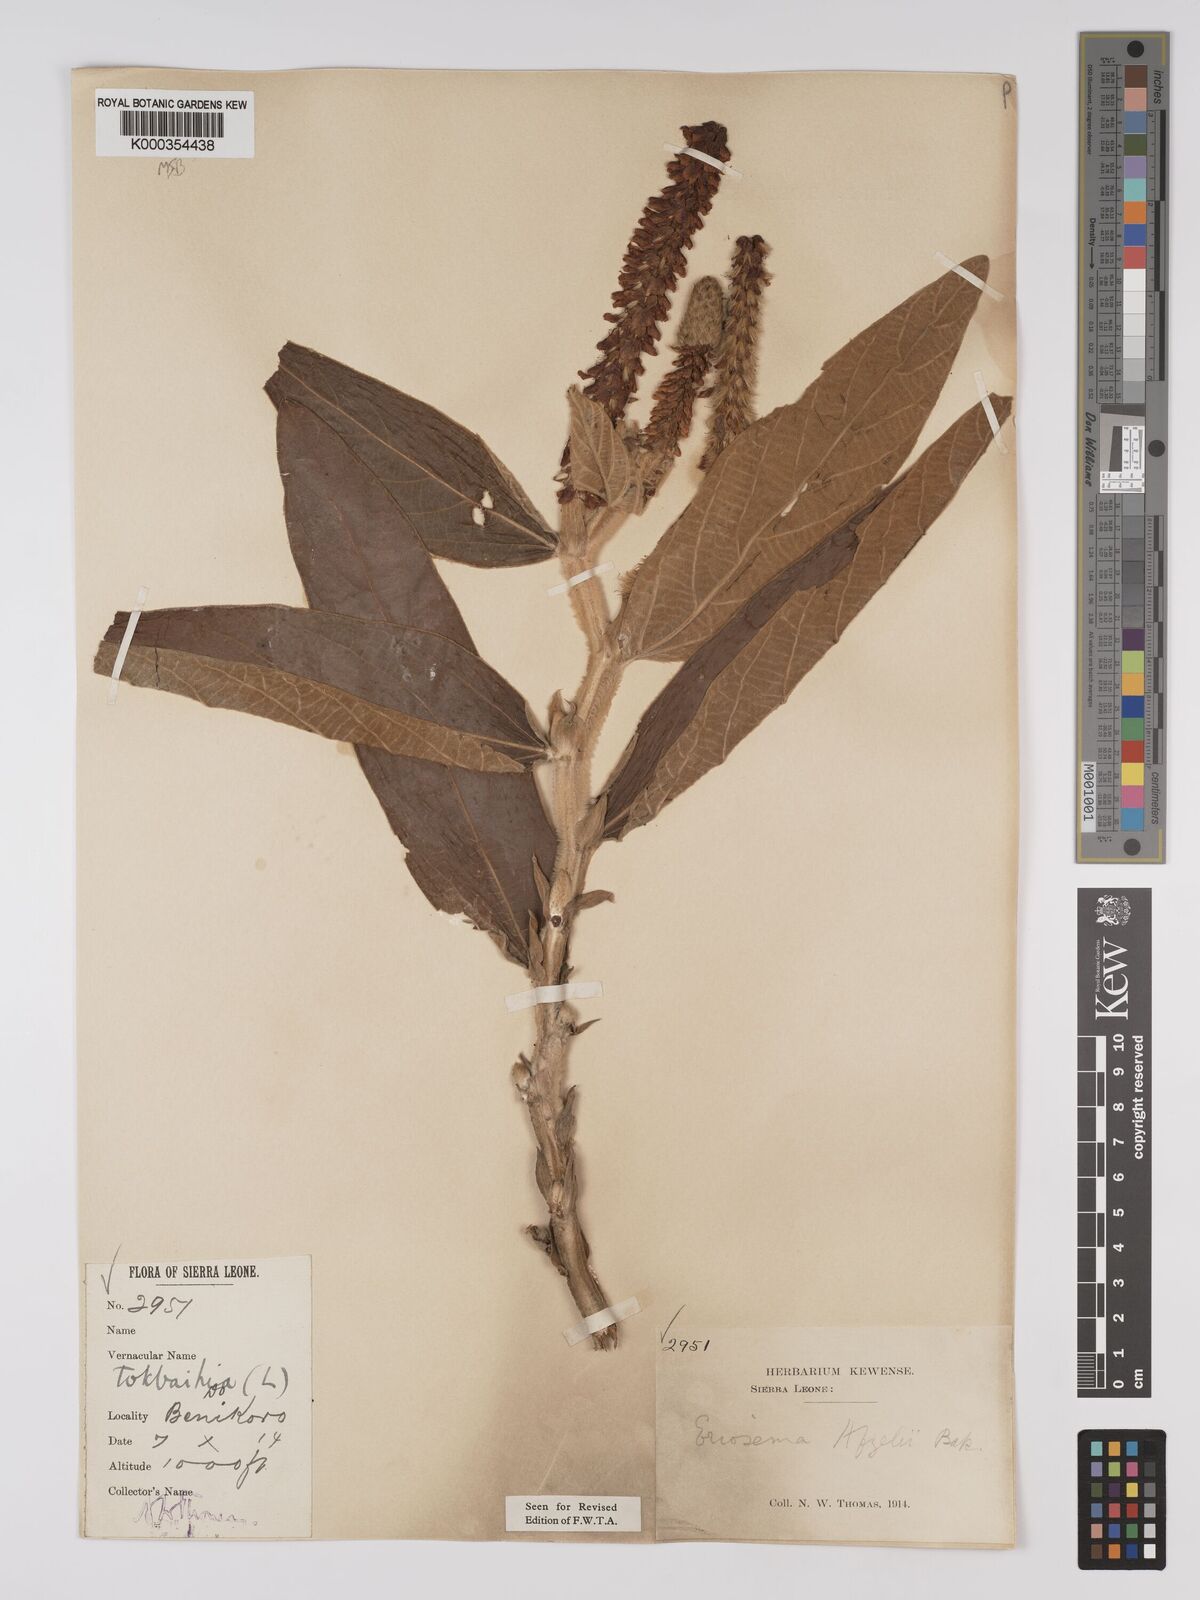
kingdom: Plantae
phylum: Tracheophyta
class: Magnoliopsida
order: Fabales
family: Fabaceae
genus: Eriosema
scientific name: Eriosema afzelii
